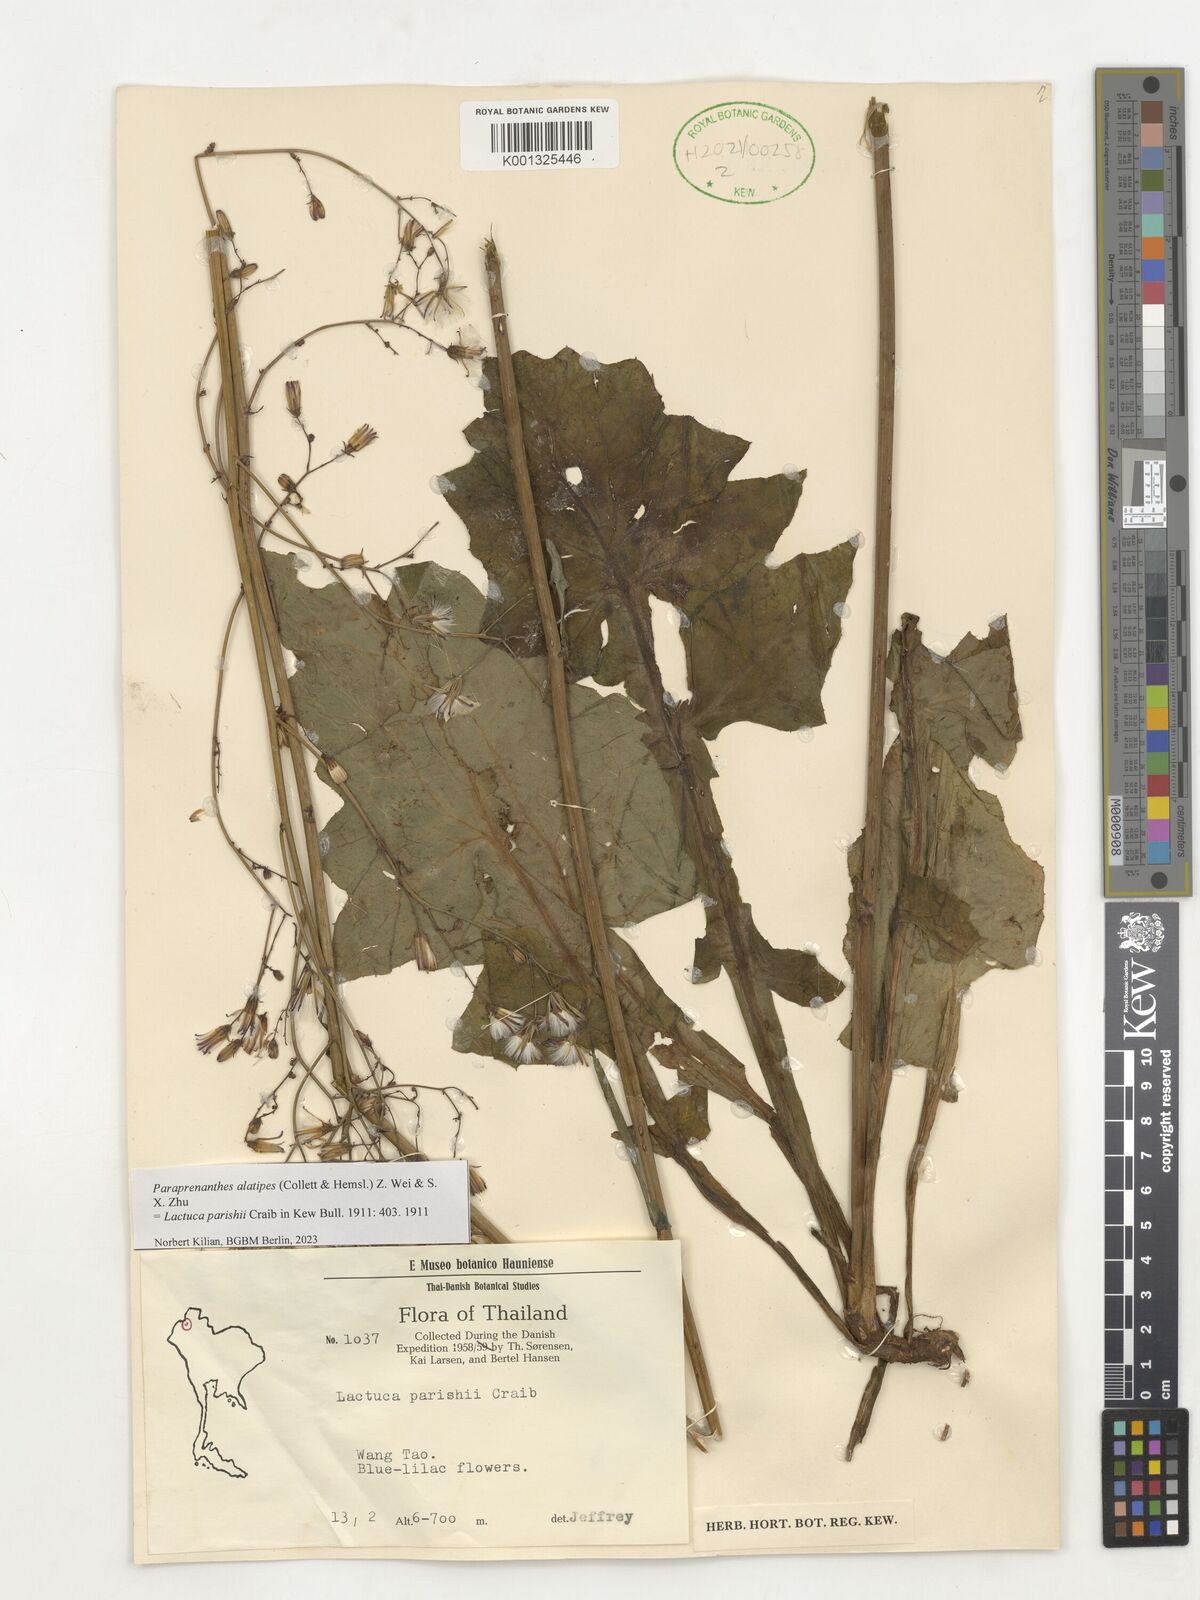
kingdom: Plantae
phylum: Tracheophyta
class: Magnoliopsida
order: Asterales
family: Asteraceae
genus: Paraprenanthes
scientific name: Paraprenanthes umbrosa
